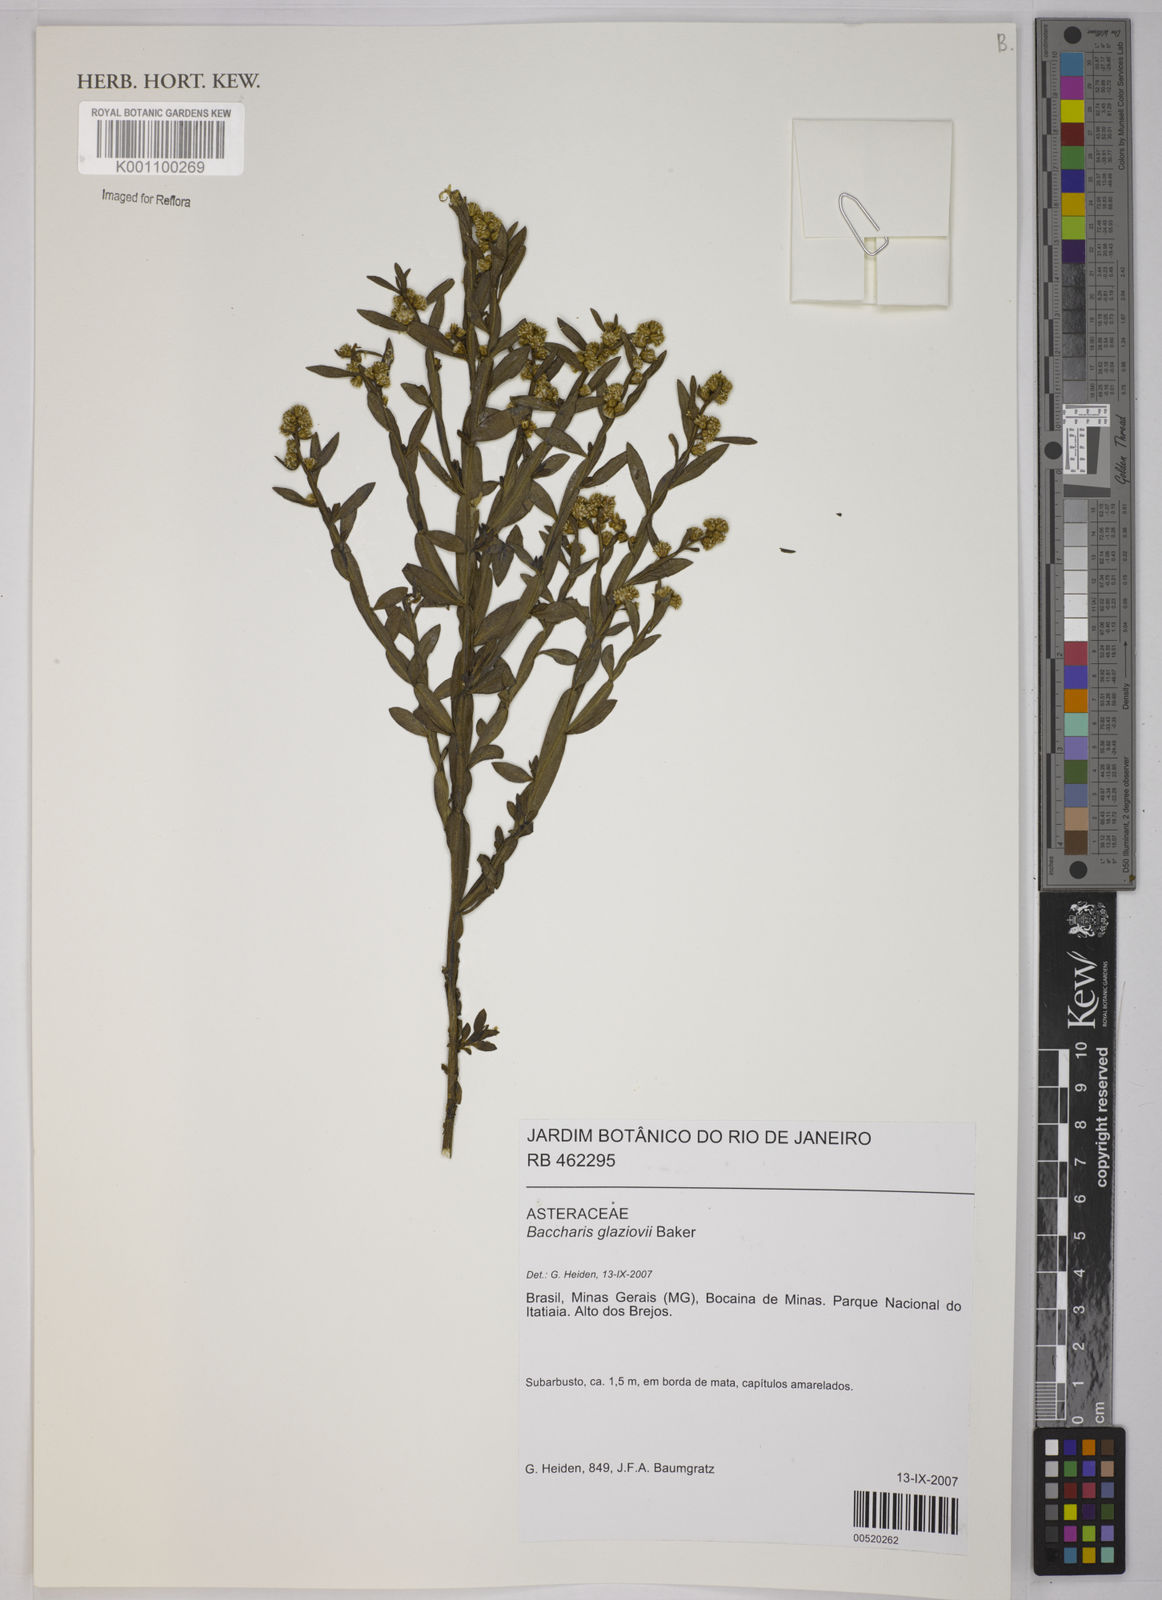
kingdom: Plantae
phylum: Tracheophyta
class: Magnoliopsida
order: Asterales
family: Asteraceae
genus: Baccharis
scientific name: Baccharis glaziovii
